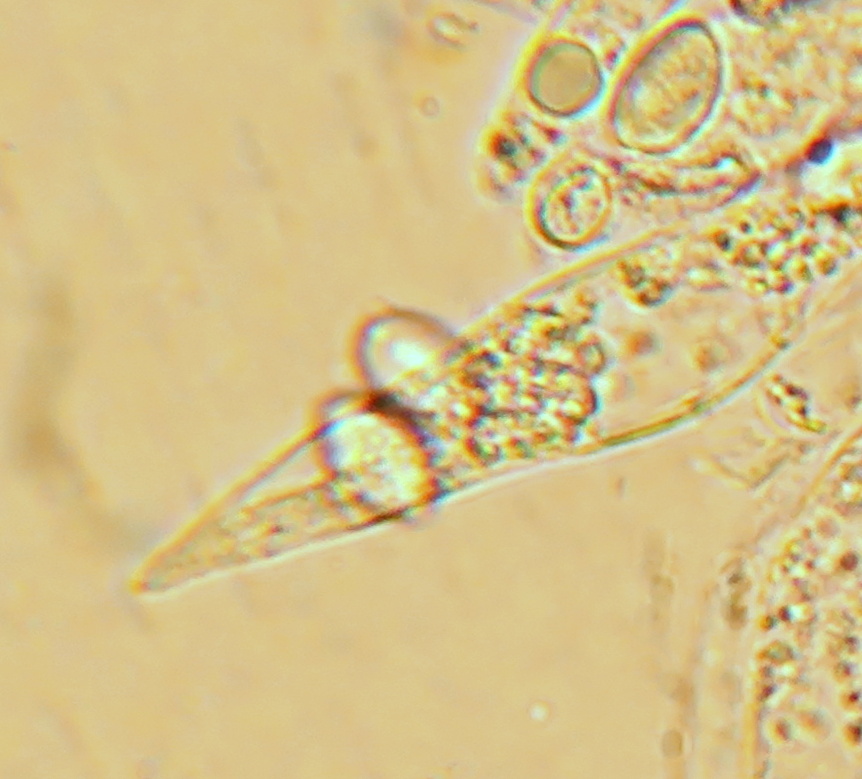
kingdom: Fungi
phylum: Basidiomycota
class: Agaricomycetes
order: Agaricales
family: Tricholomataceae
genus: Melanoleuca
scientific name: Melanoleuca cognata
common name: gyldengrå munkehat
